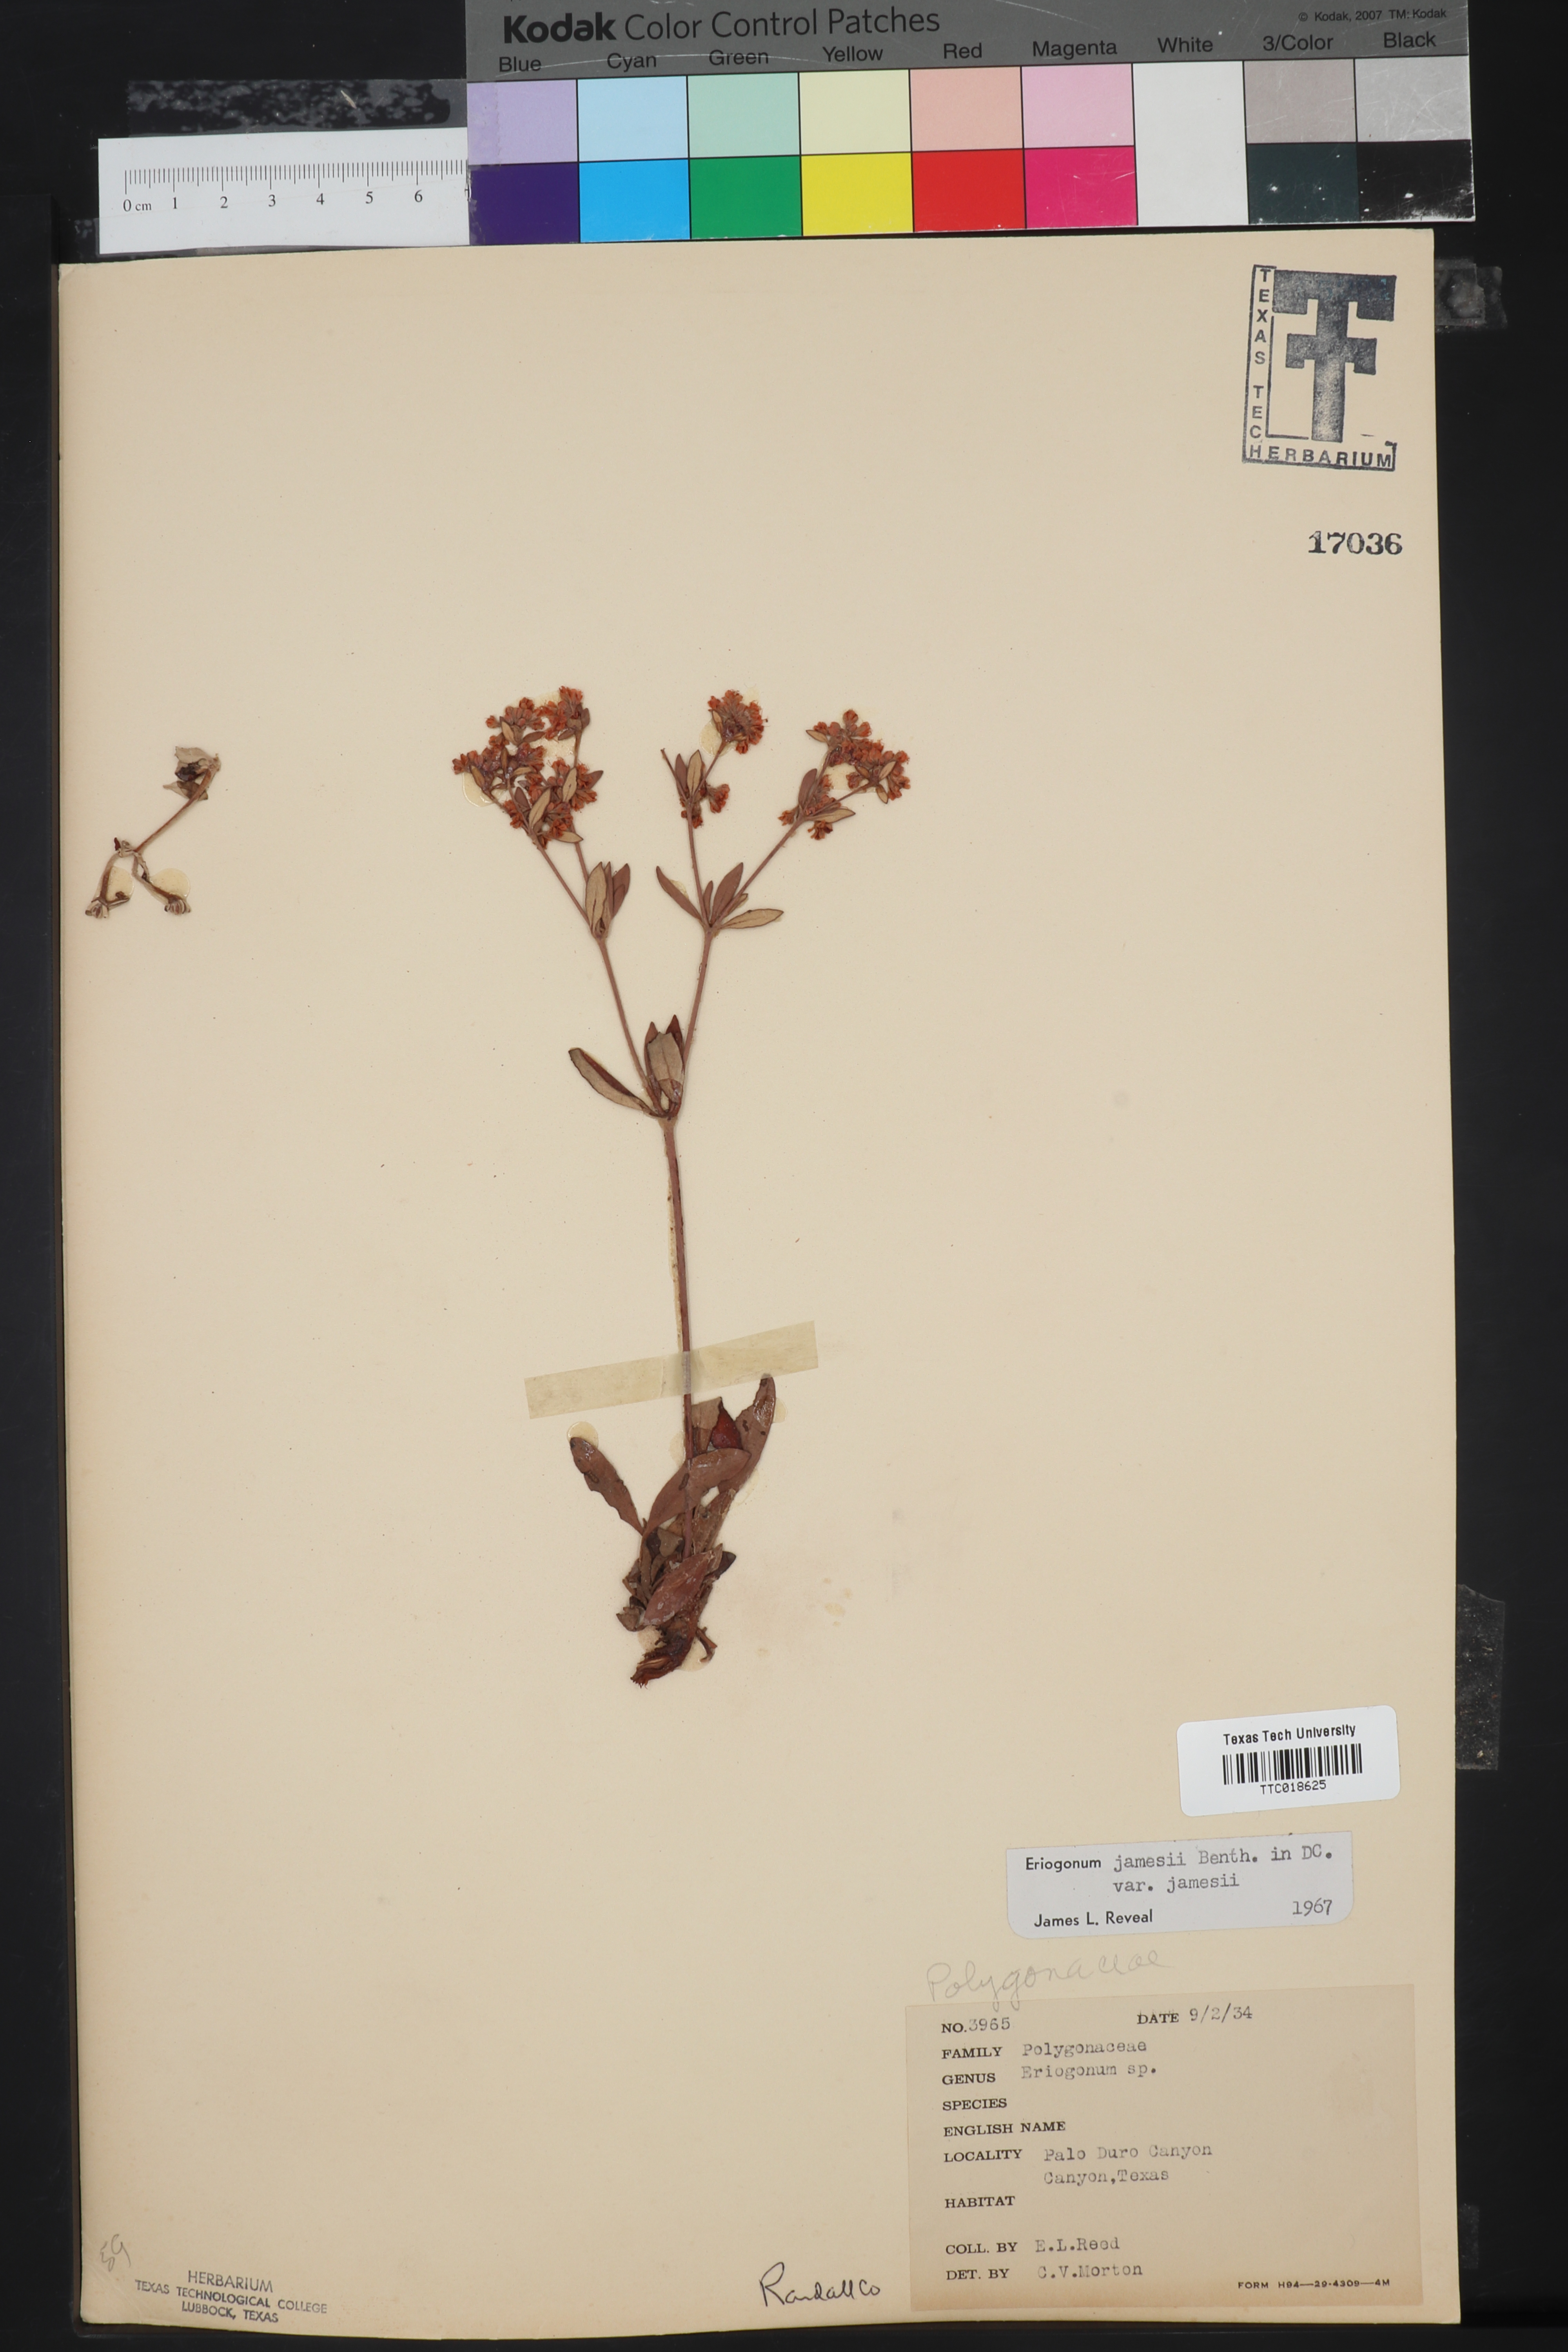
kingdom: Plantae
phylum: Tracheophyta
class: Magnoliopsida
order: Caryophyllales
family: Polygonaceae
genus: Eriogonum
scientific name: Eriogonum jamesii
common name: Antelope-sage
